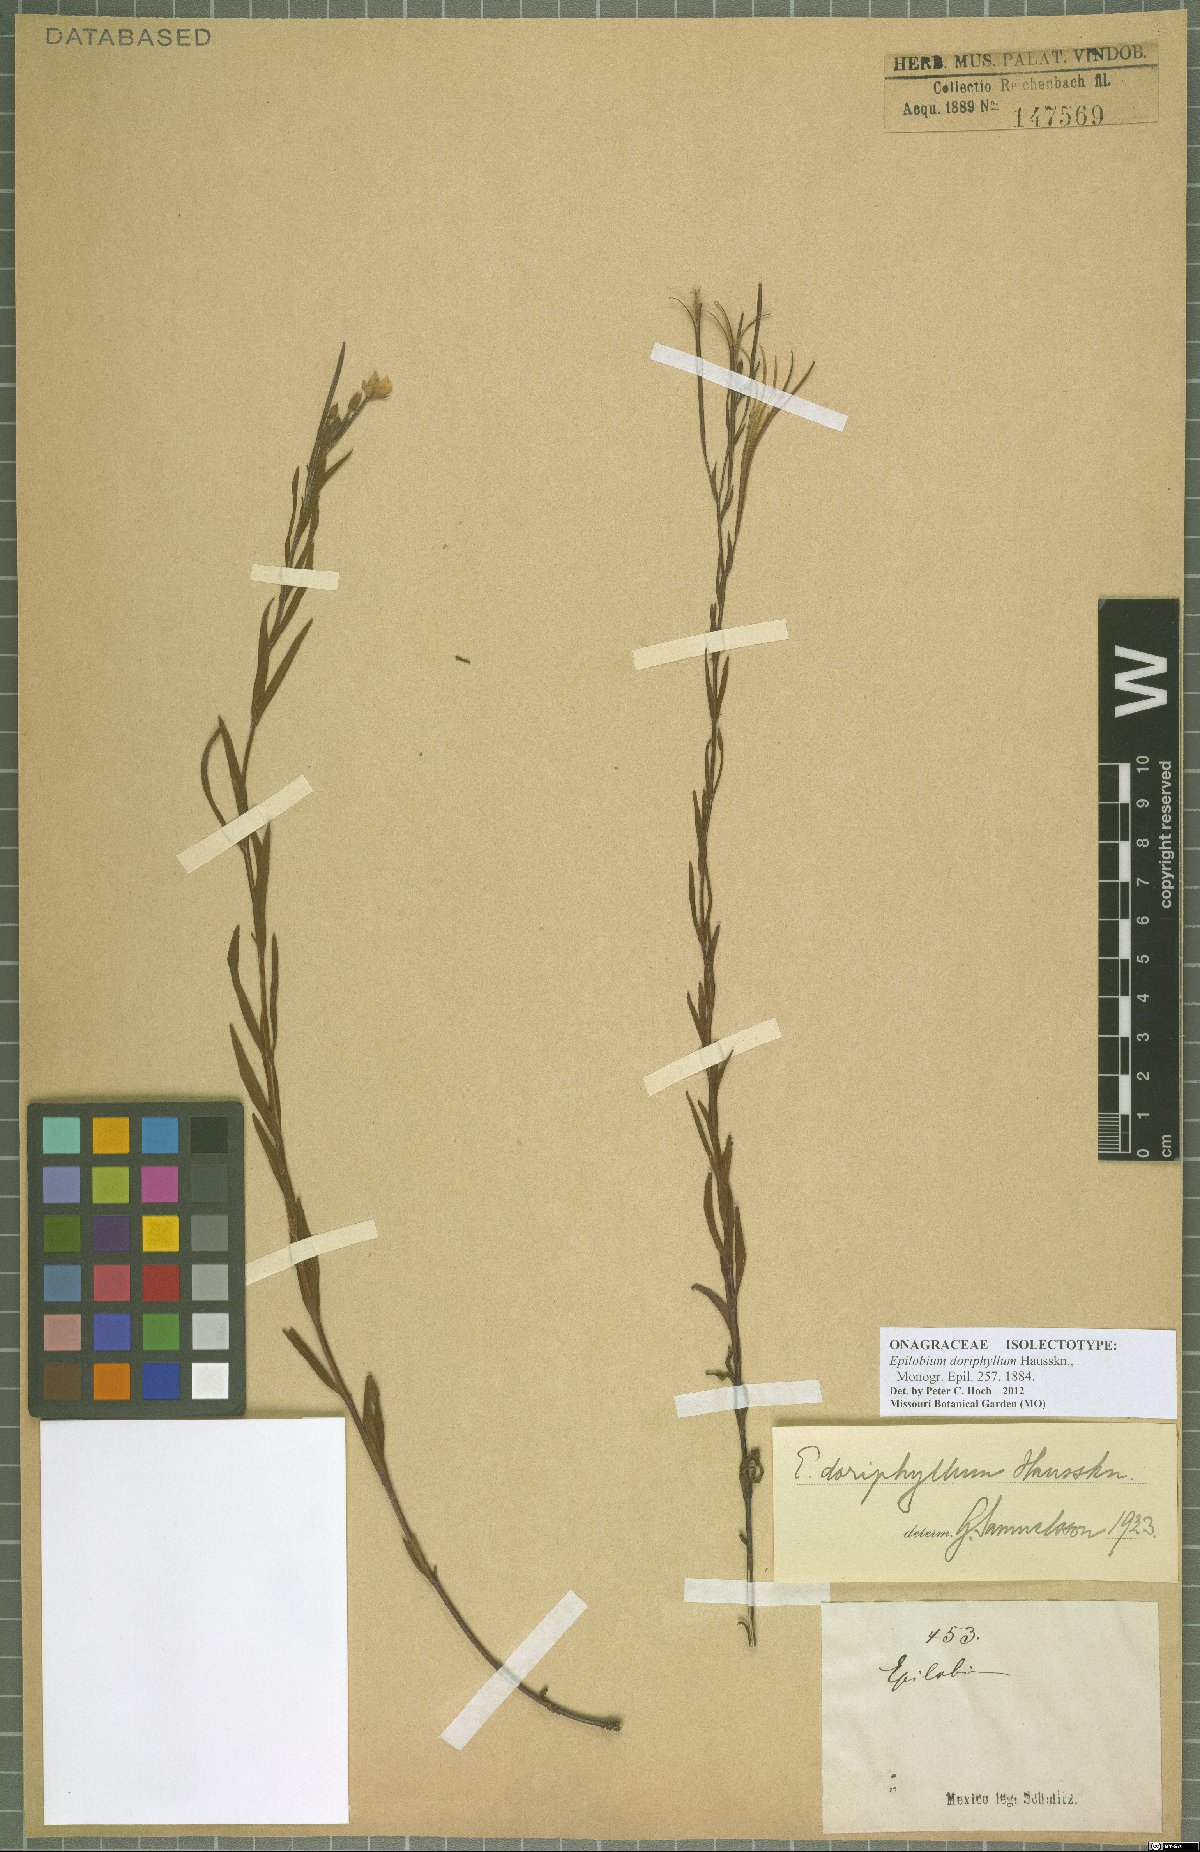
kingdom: Plantae
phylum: Tracheophyta
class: Magnoliopsida
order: Myrtales
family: Onagraceae
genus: Epilobium
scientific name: Epilobium ciliatum
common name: American willowherb
